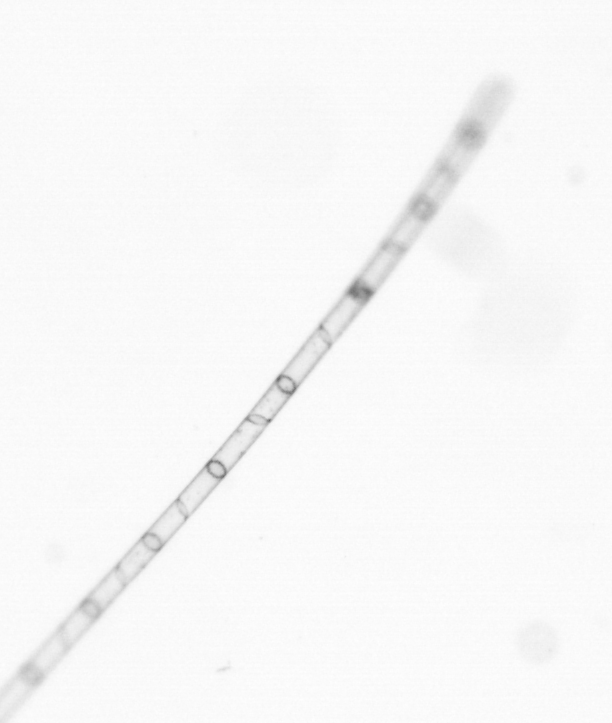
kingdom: Chromista
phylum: Ochrophyta
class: Bacillariophyceae
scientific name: Bacillariophyceae
